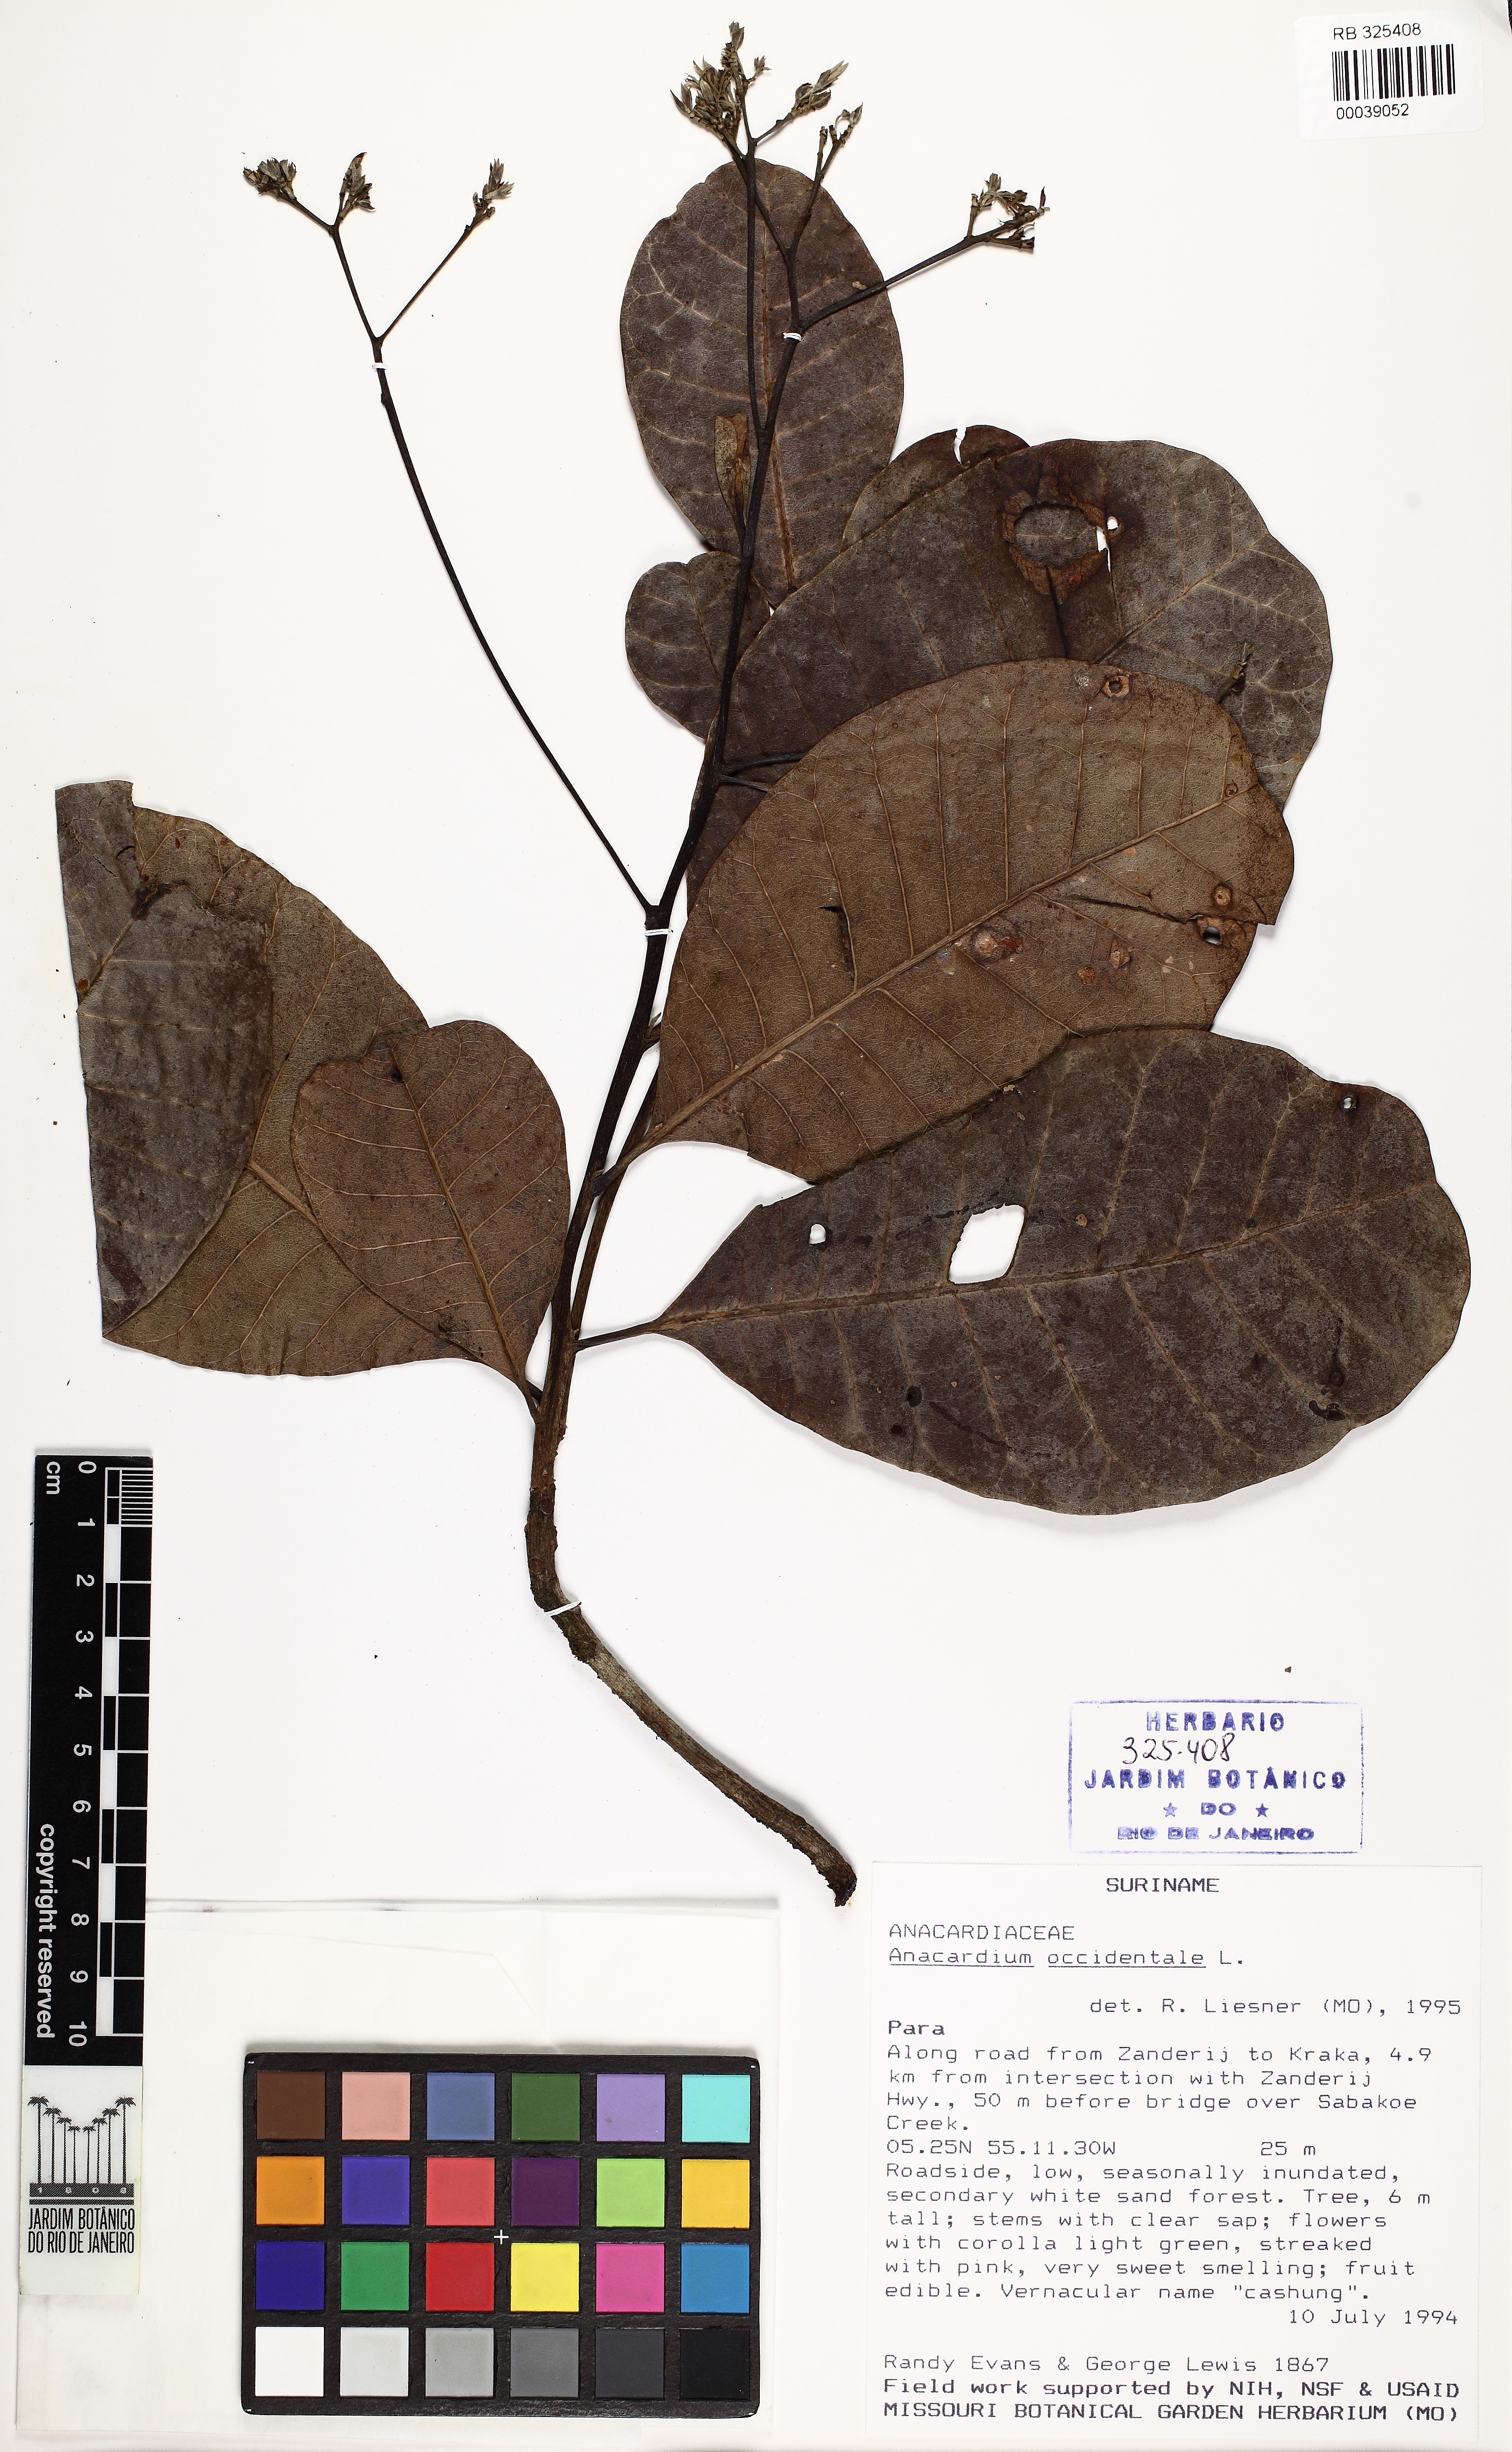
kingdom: Plantae
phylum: Tracheophyta
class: Magnoliopsida
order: Sapindales
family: Anacardiaceae
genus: Anacardium
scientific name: Anacardium occidentale
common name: Cashew
